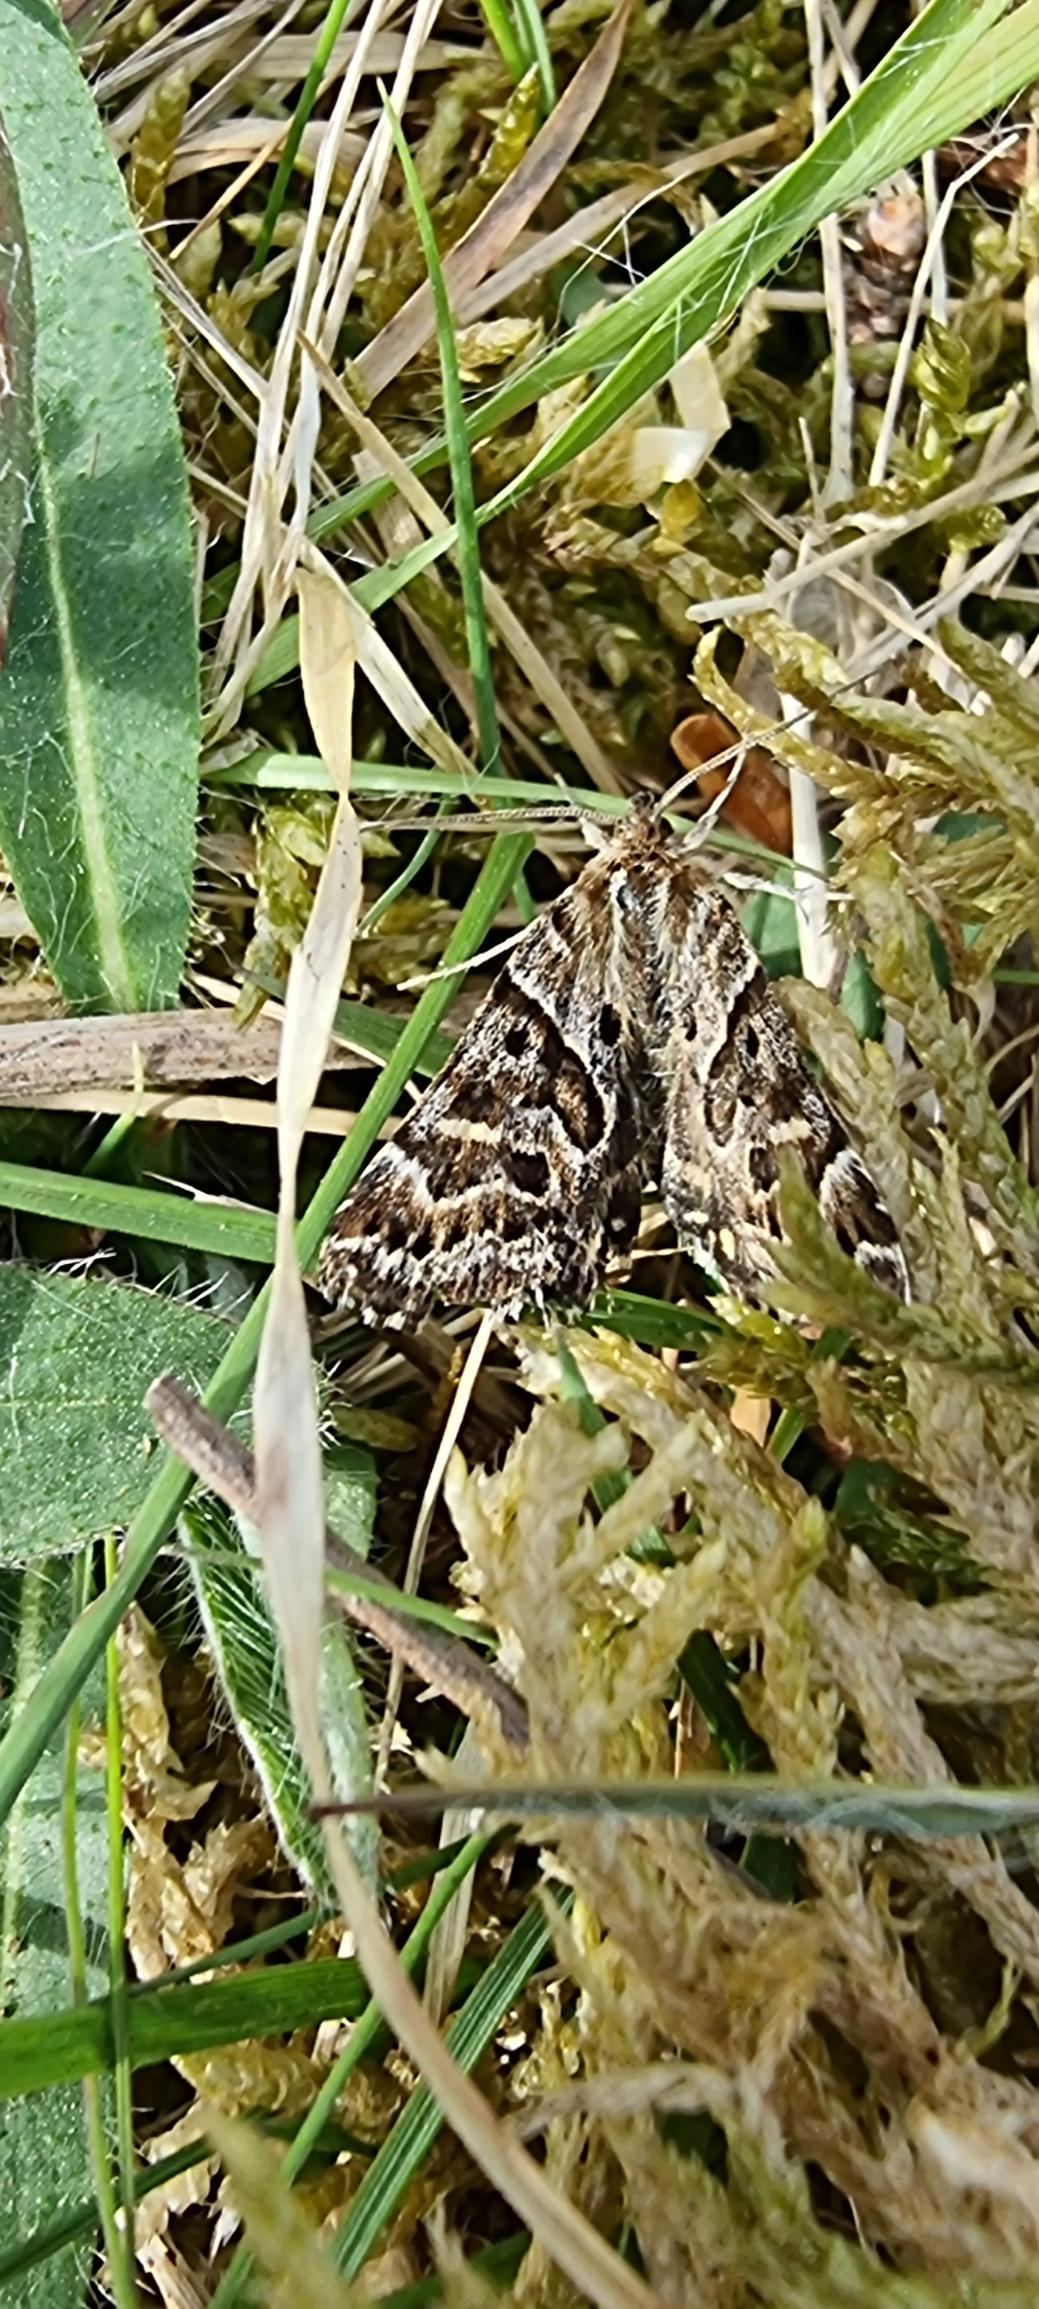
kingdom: Animalia
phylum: Arthropoda
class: Insecta
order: Lepidoptera
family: Erebidae
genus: Callistege
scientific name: Callistege mi
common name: Marmoreret kløverugle
